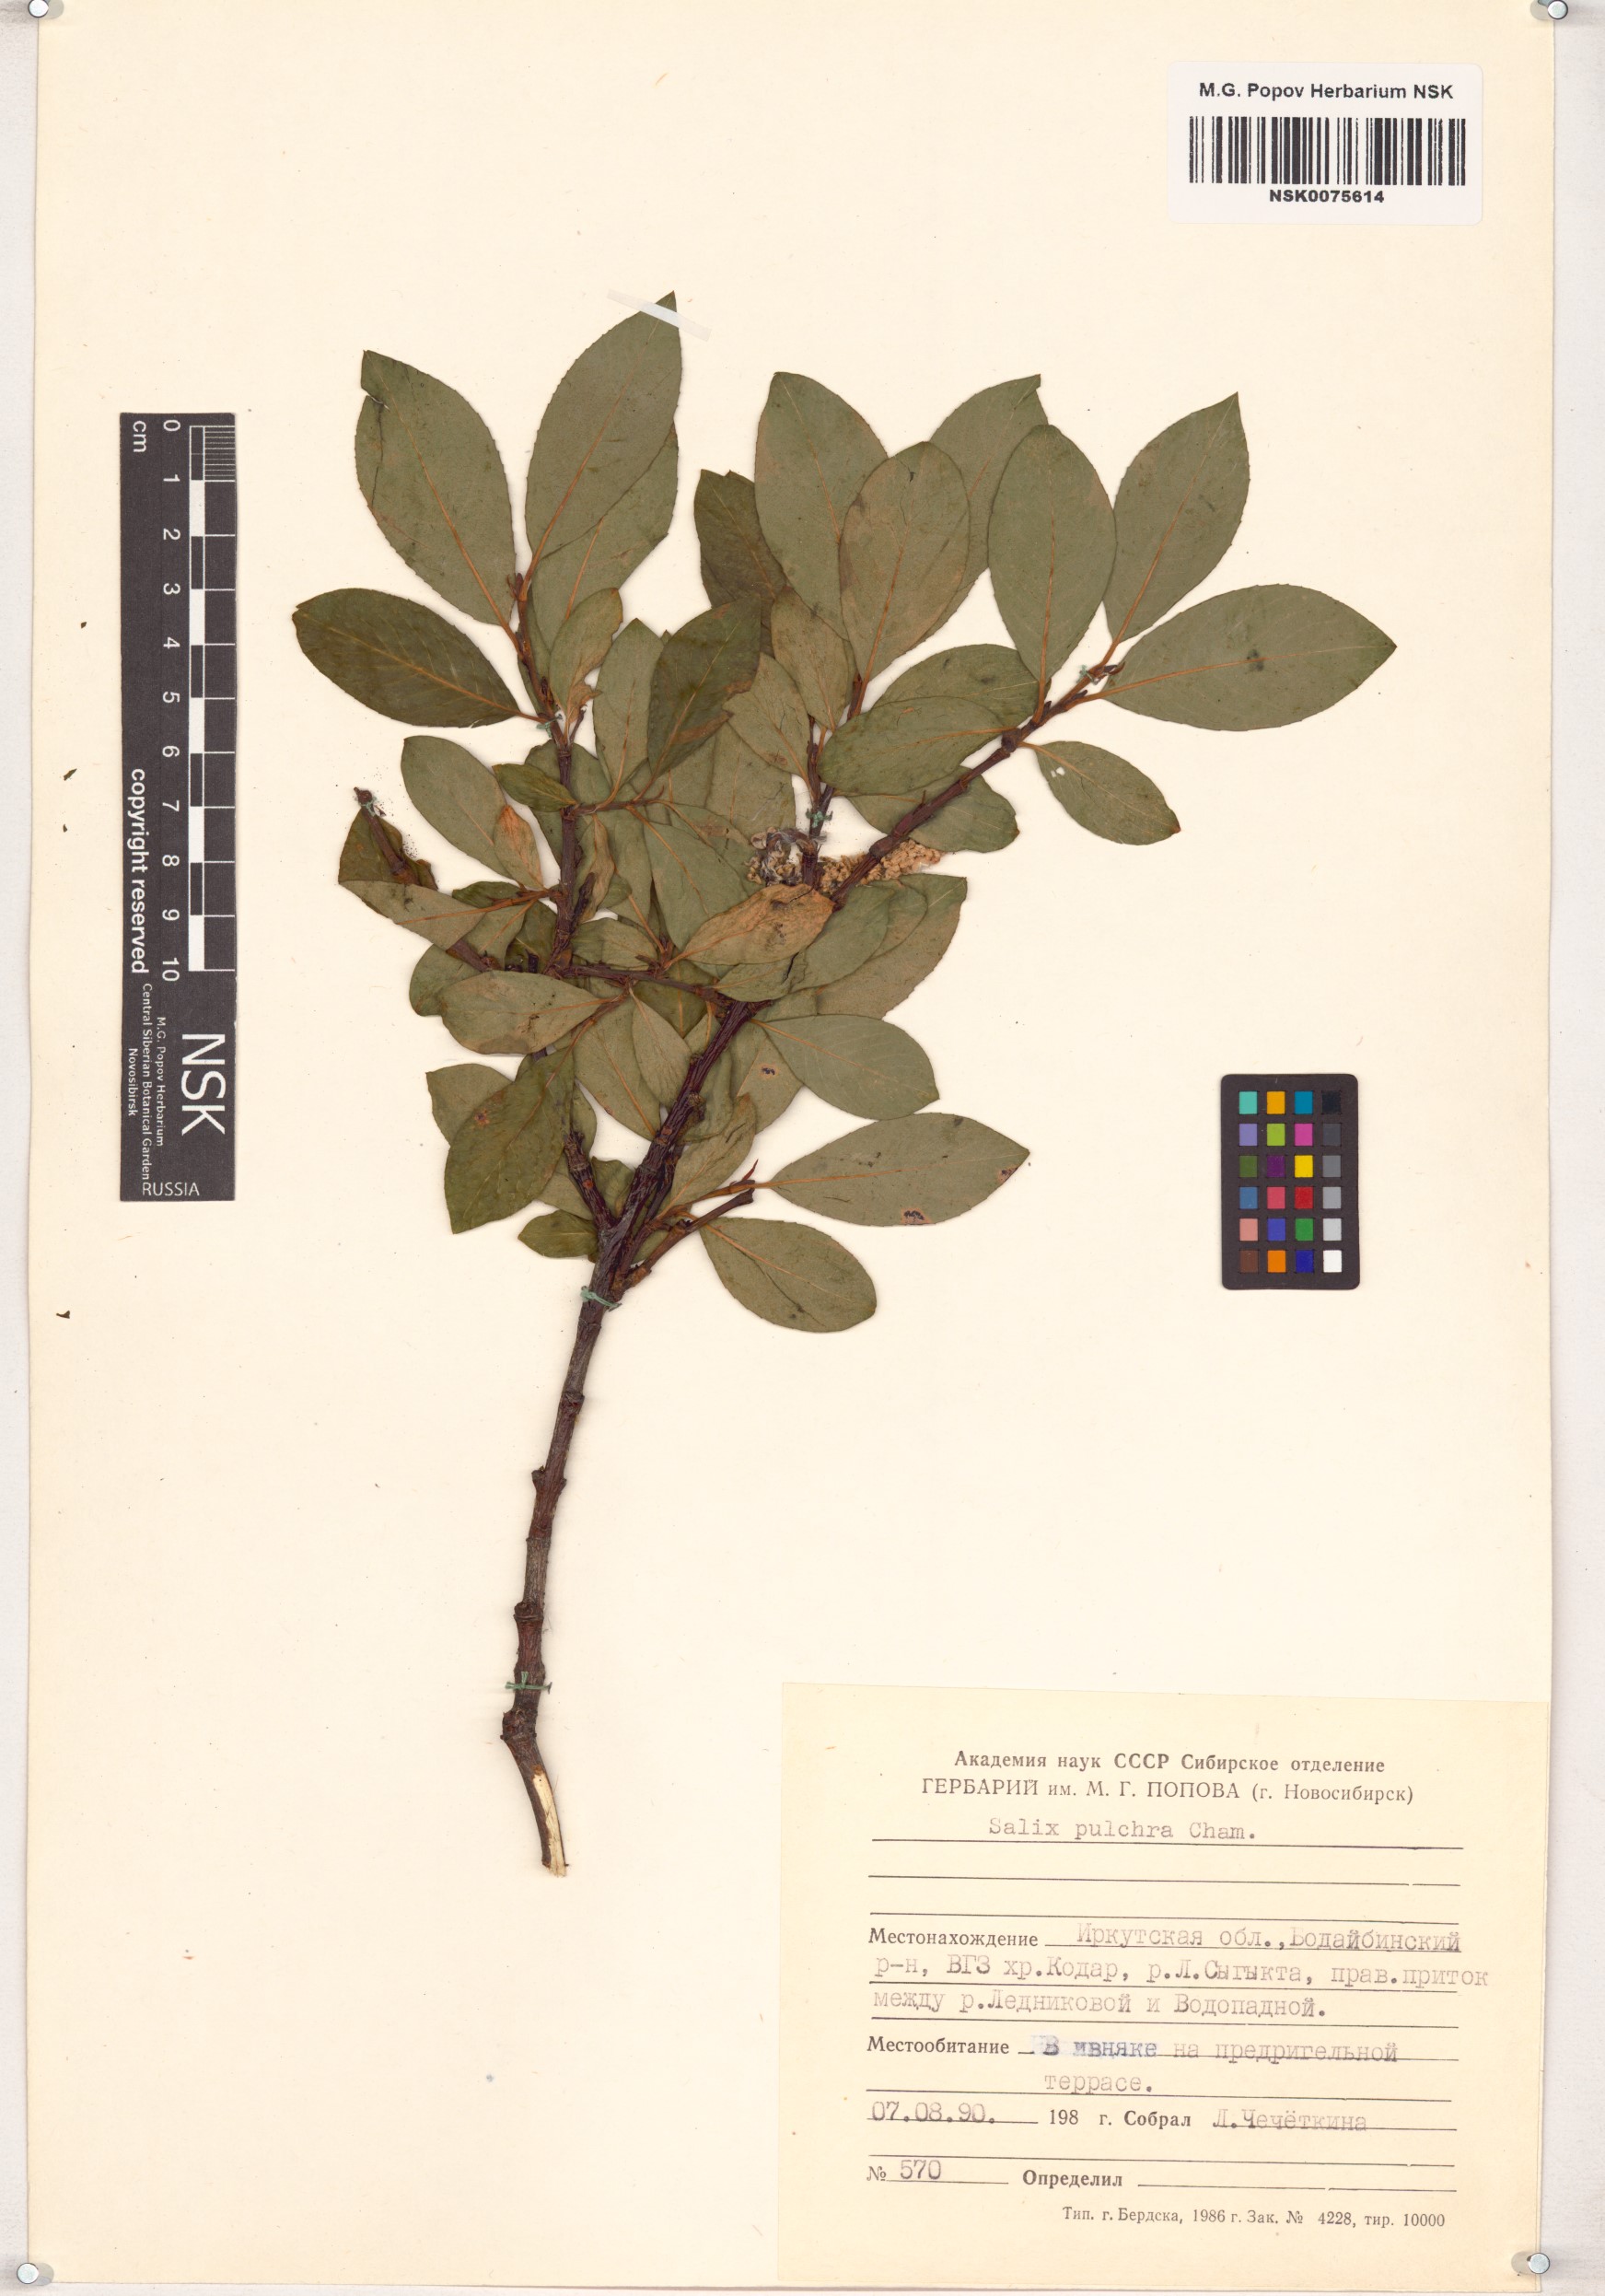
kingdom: Plantae
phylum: Tracheophyta
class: Magnoliopsida
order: Malpighiales
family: Salicaceae
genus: Salix
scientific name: Salix pulchra
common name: Diamond-leaved willow
